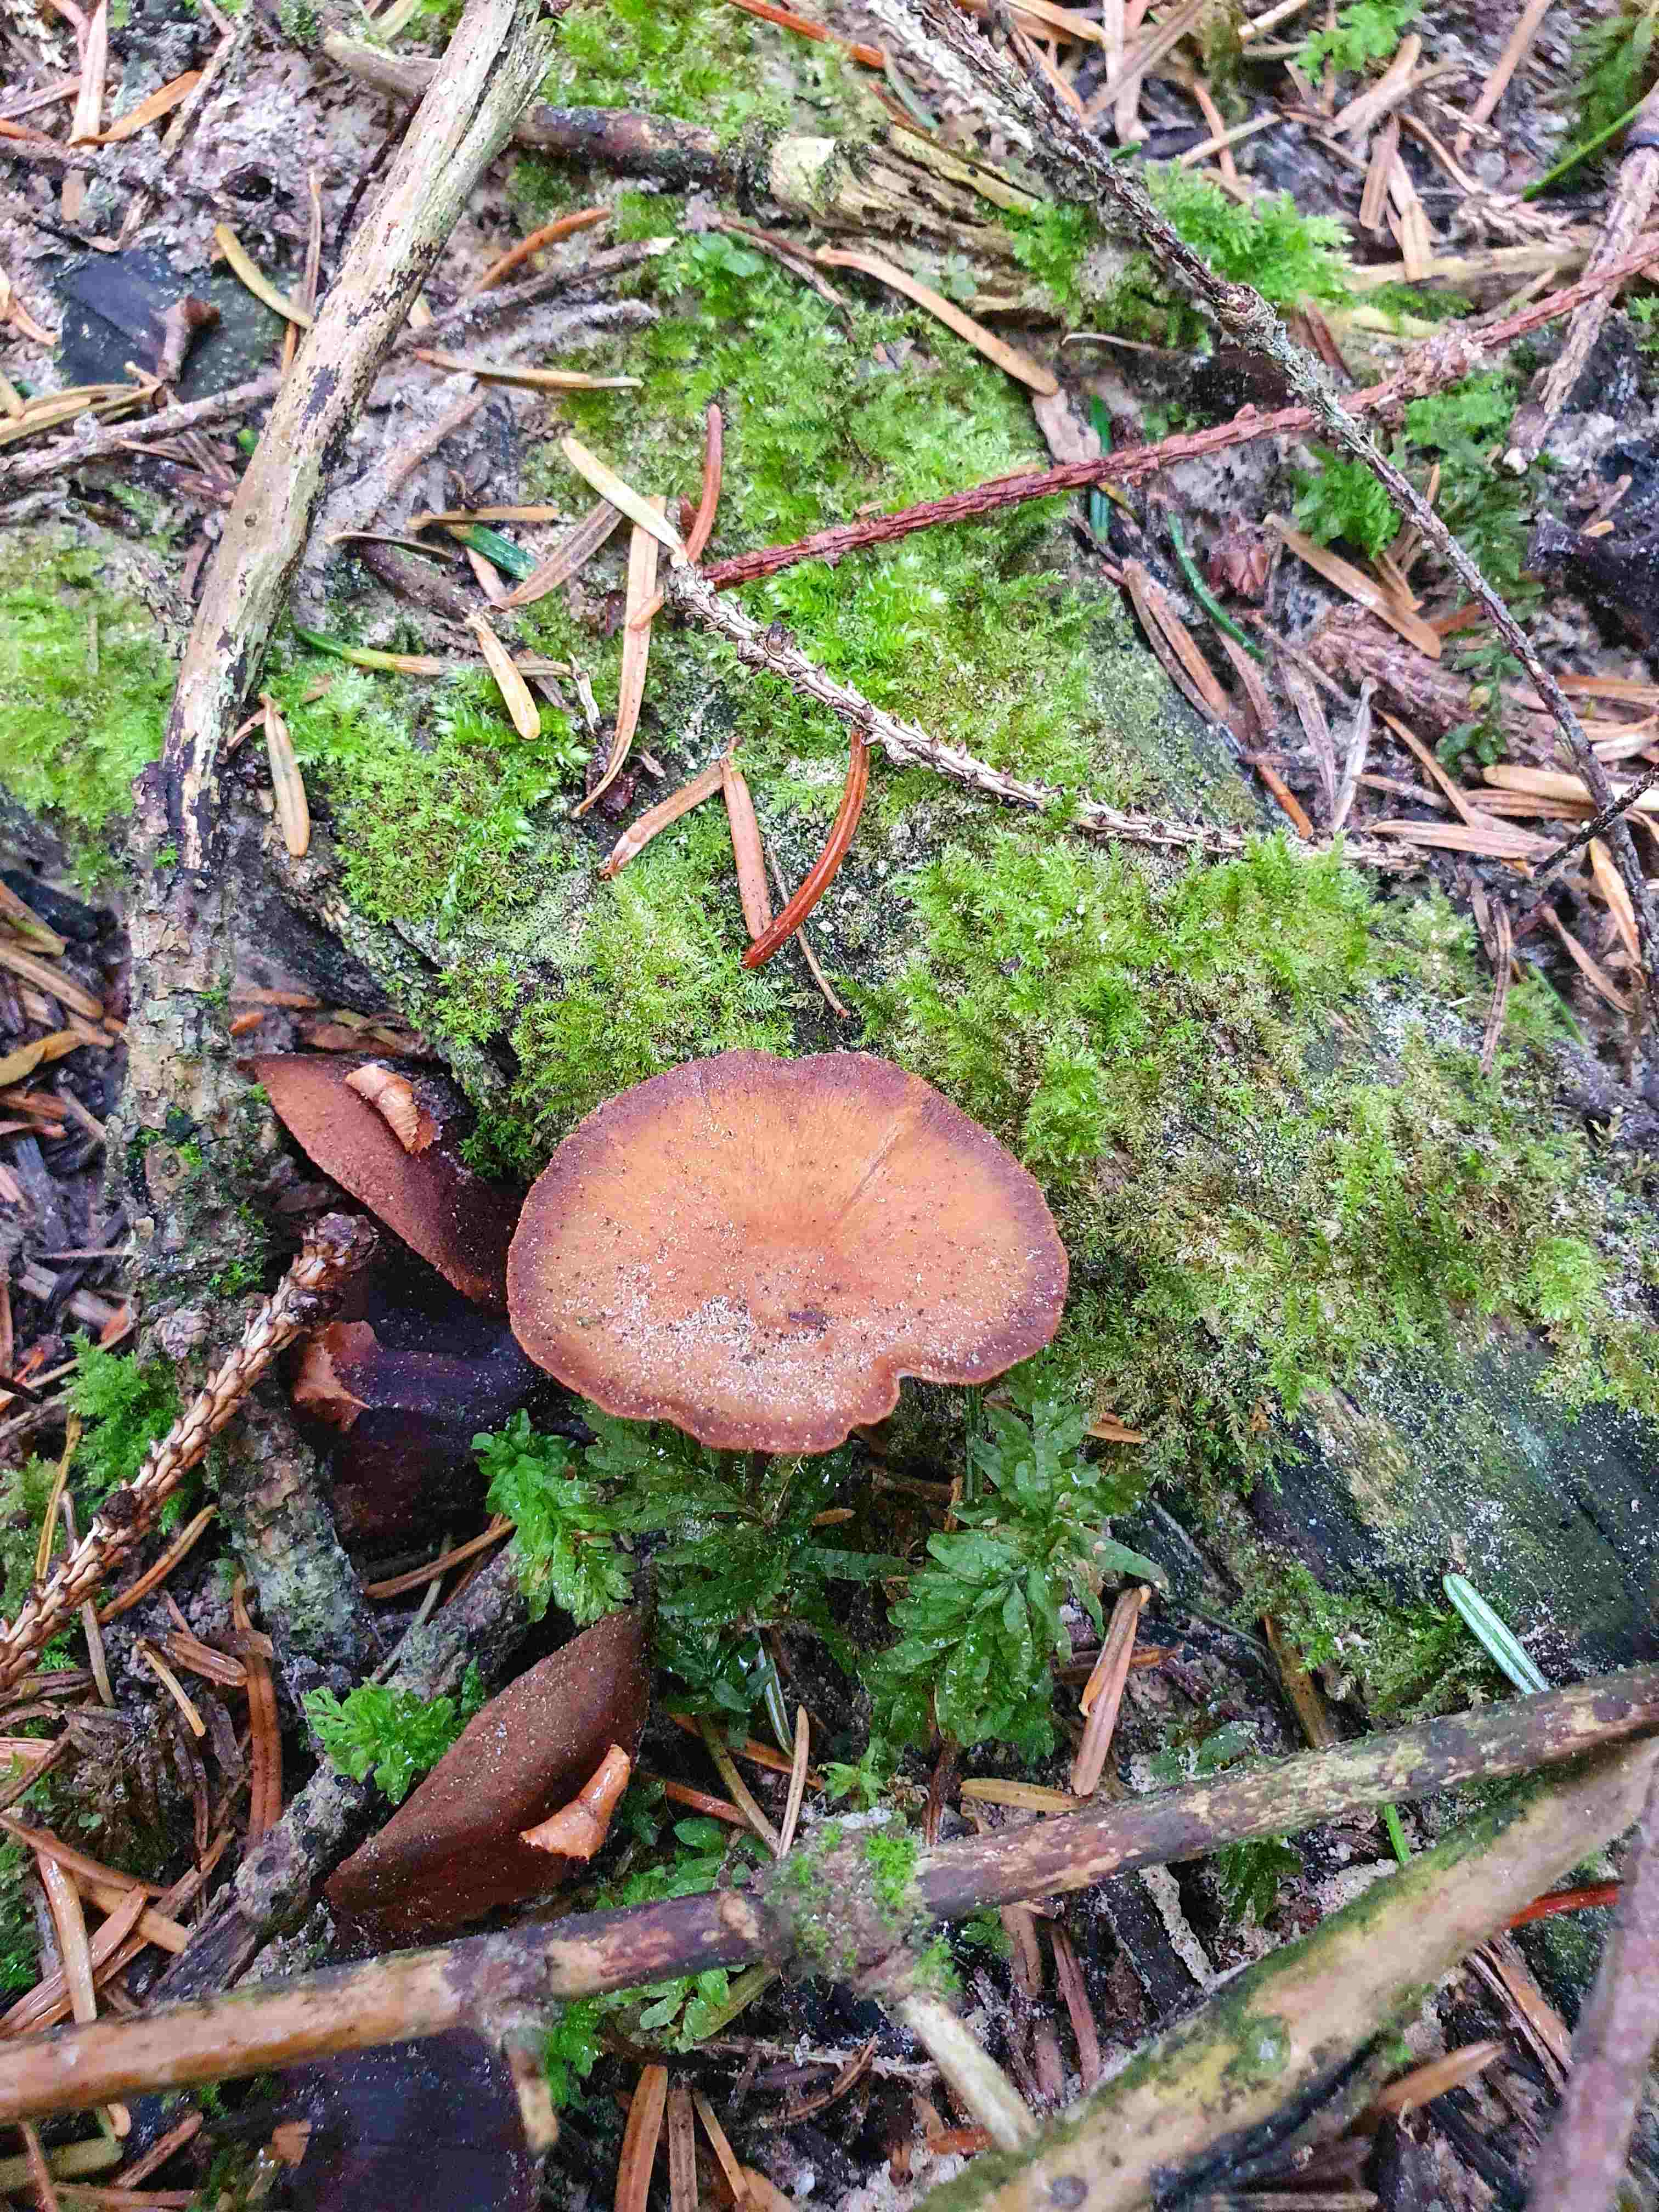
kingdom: Fungi
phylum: Basidiomycota
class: Agaricomycetes
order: Polyporales
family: Polyporaceae
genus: Cerioporus
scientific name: Cerioporus varius
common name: foranderlig stilkporesvamp
